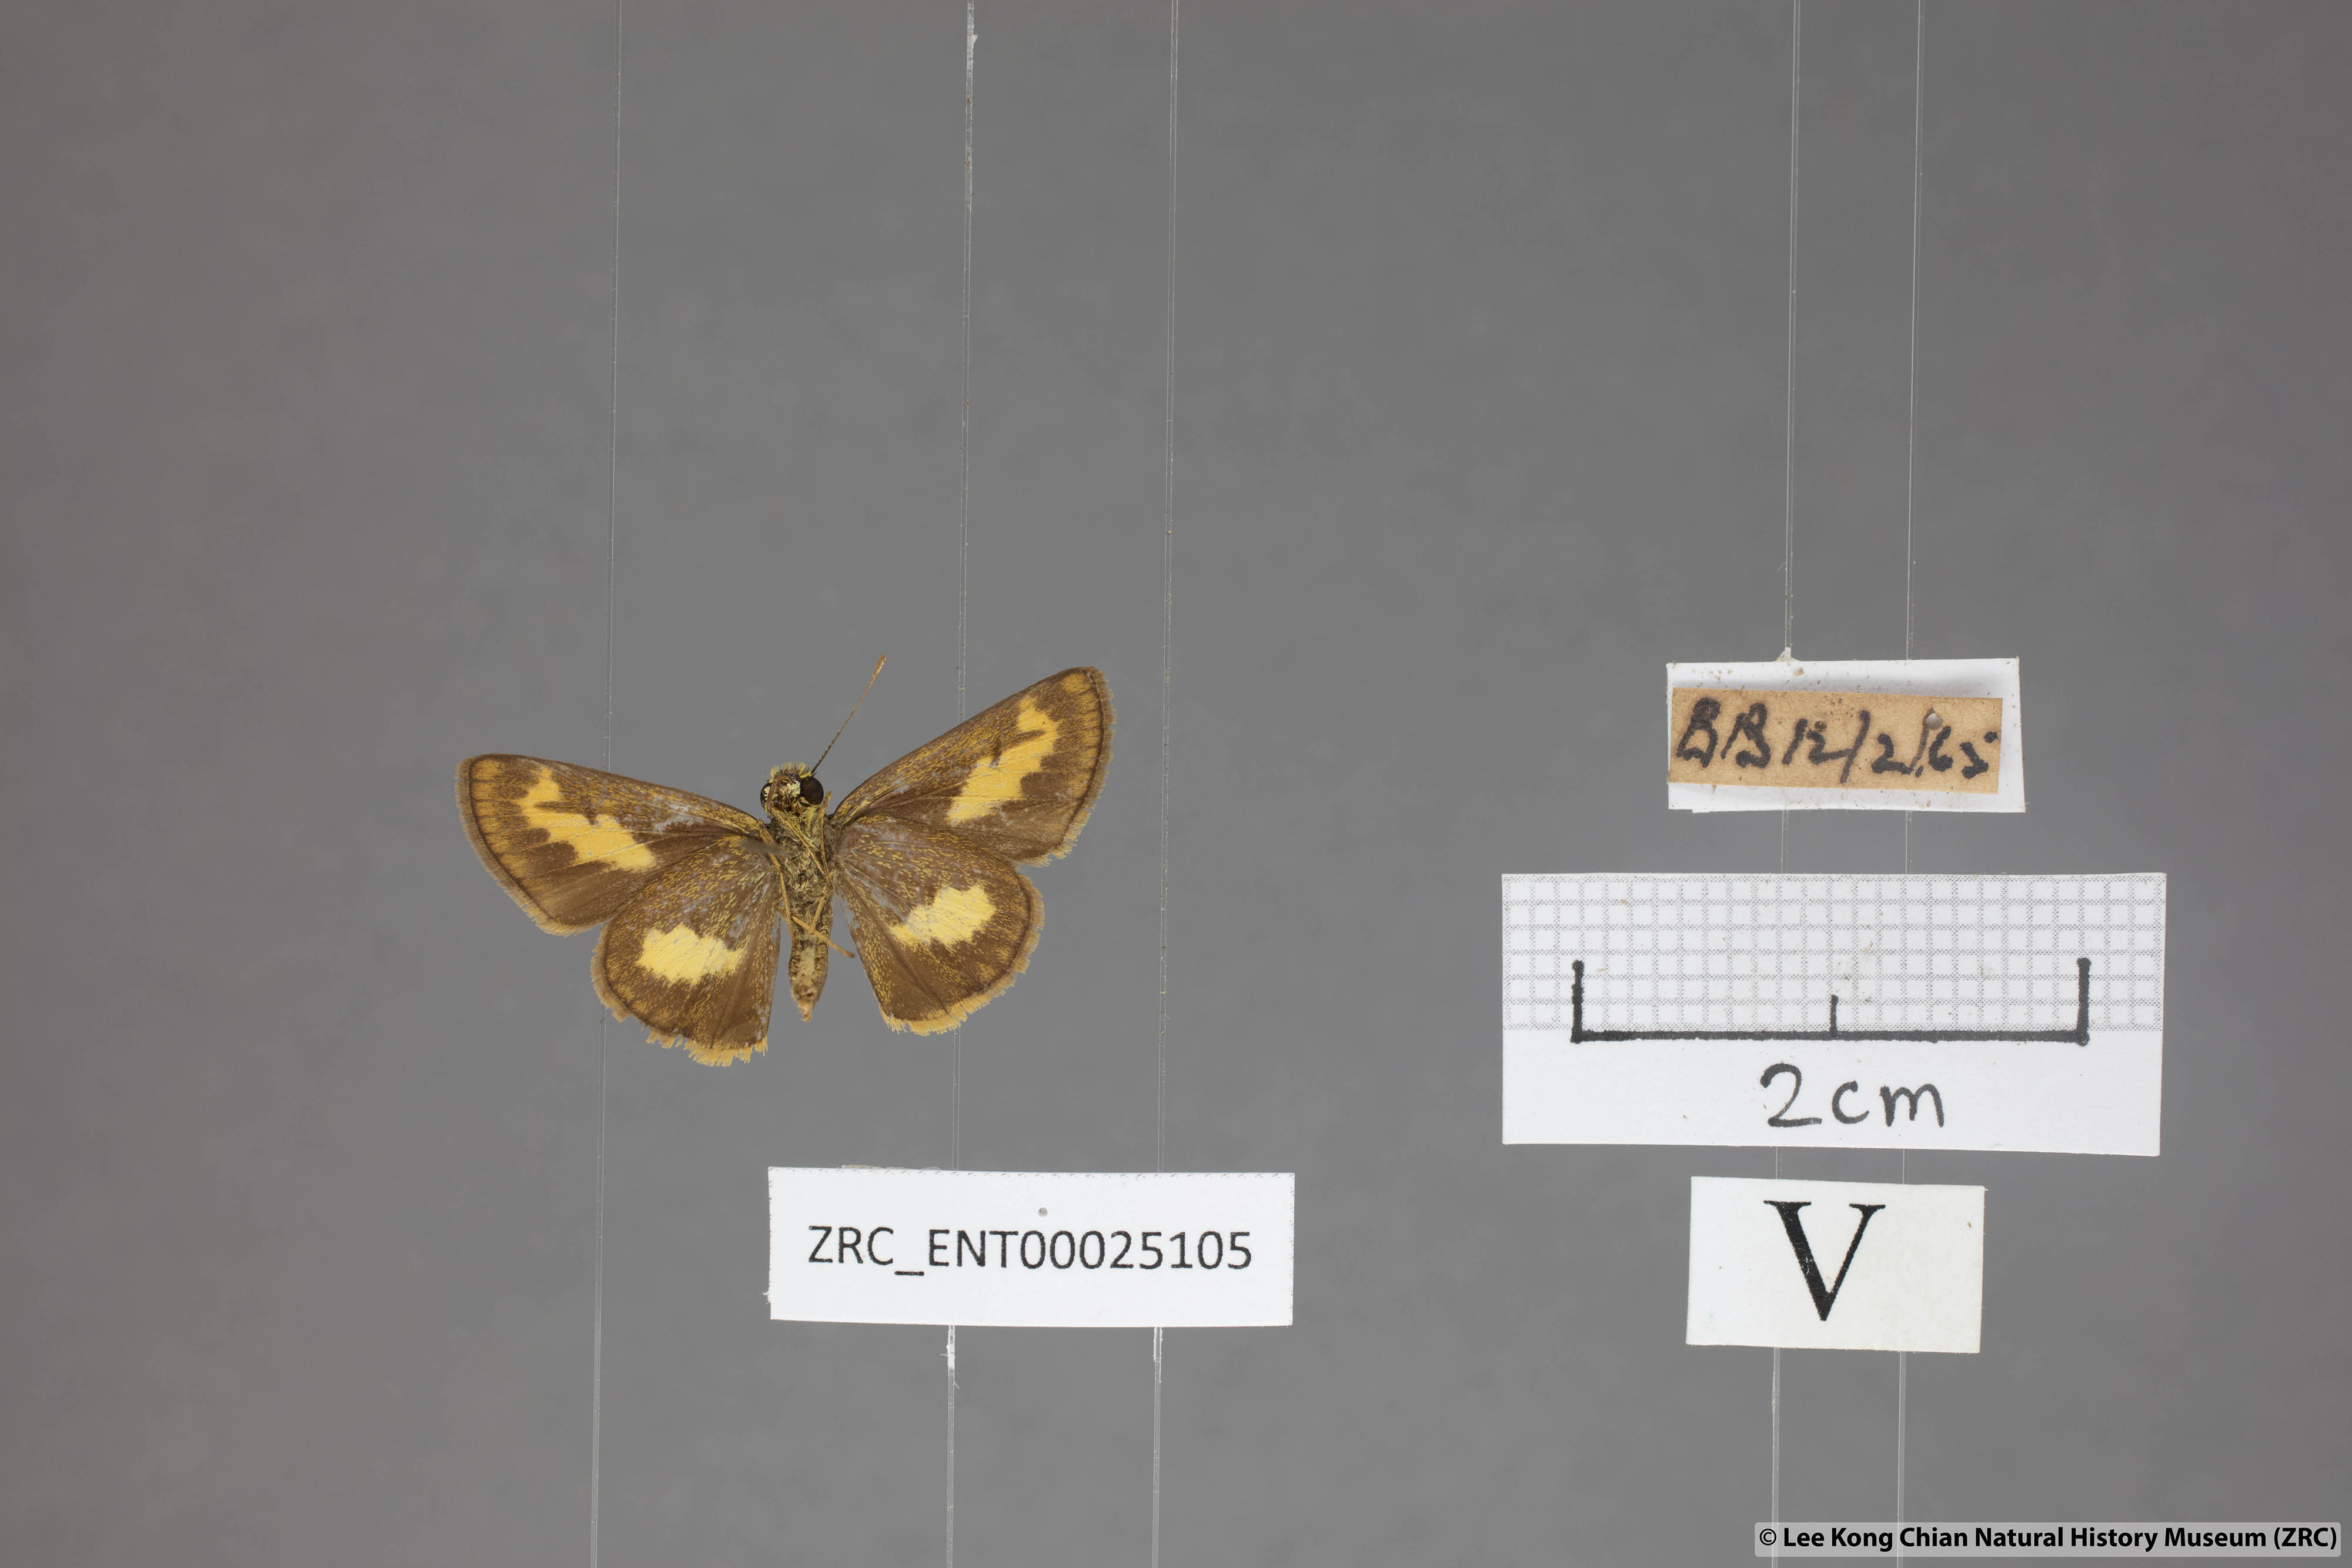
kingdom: Animalia
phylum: Arthropoda
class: Insecta
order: Lepidoptera
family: Hesperiidae
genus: Oriens
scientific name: Oriens paragola
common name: Malay dartlet
